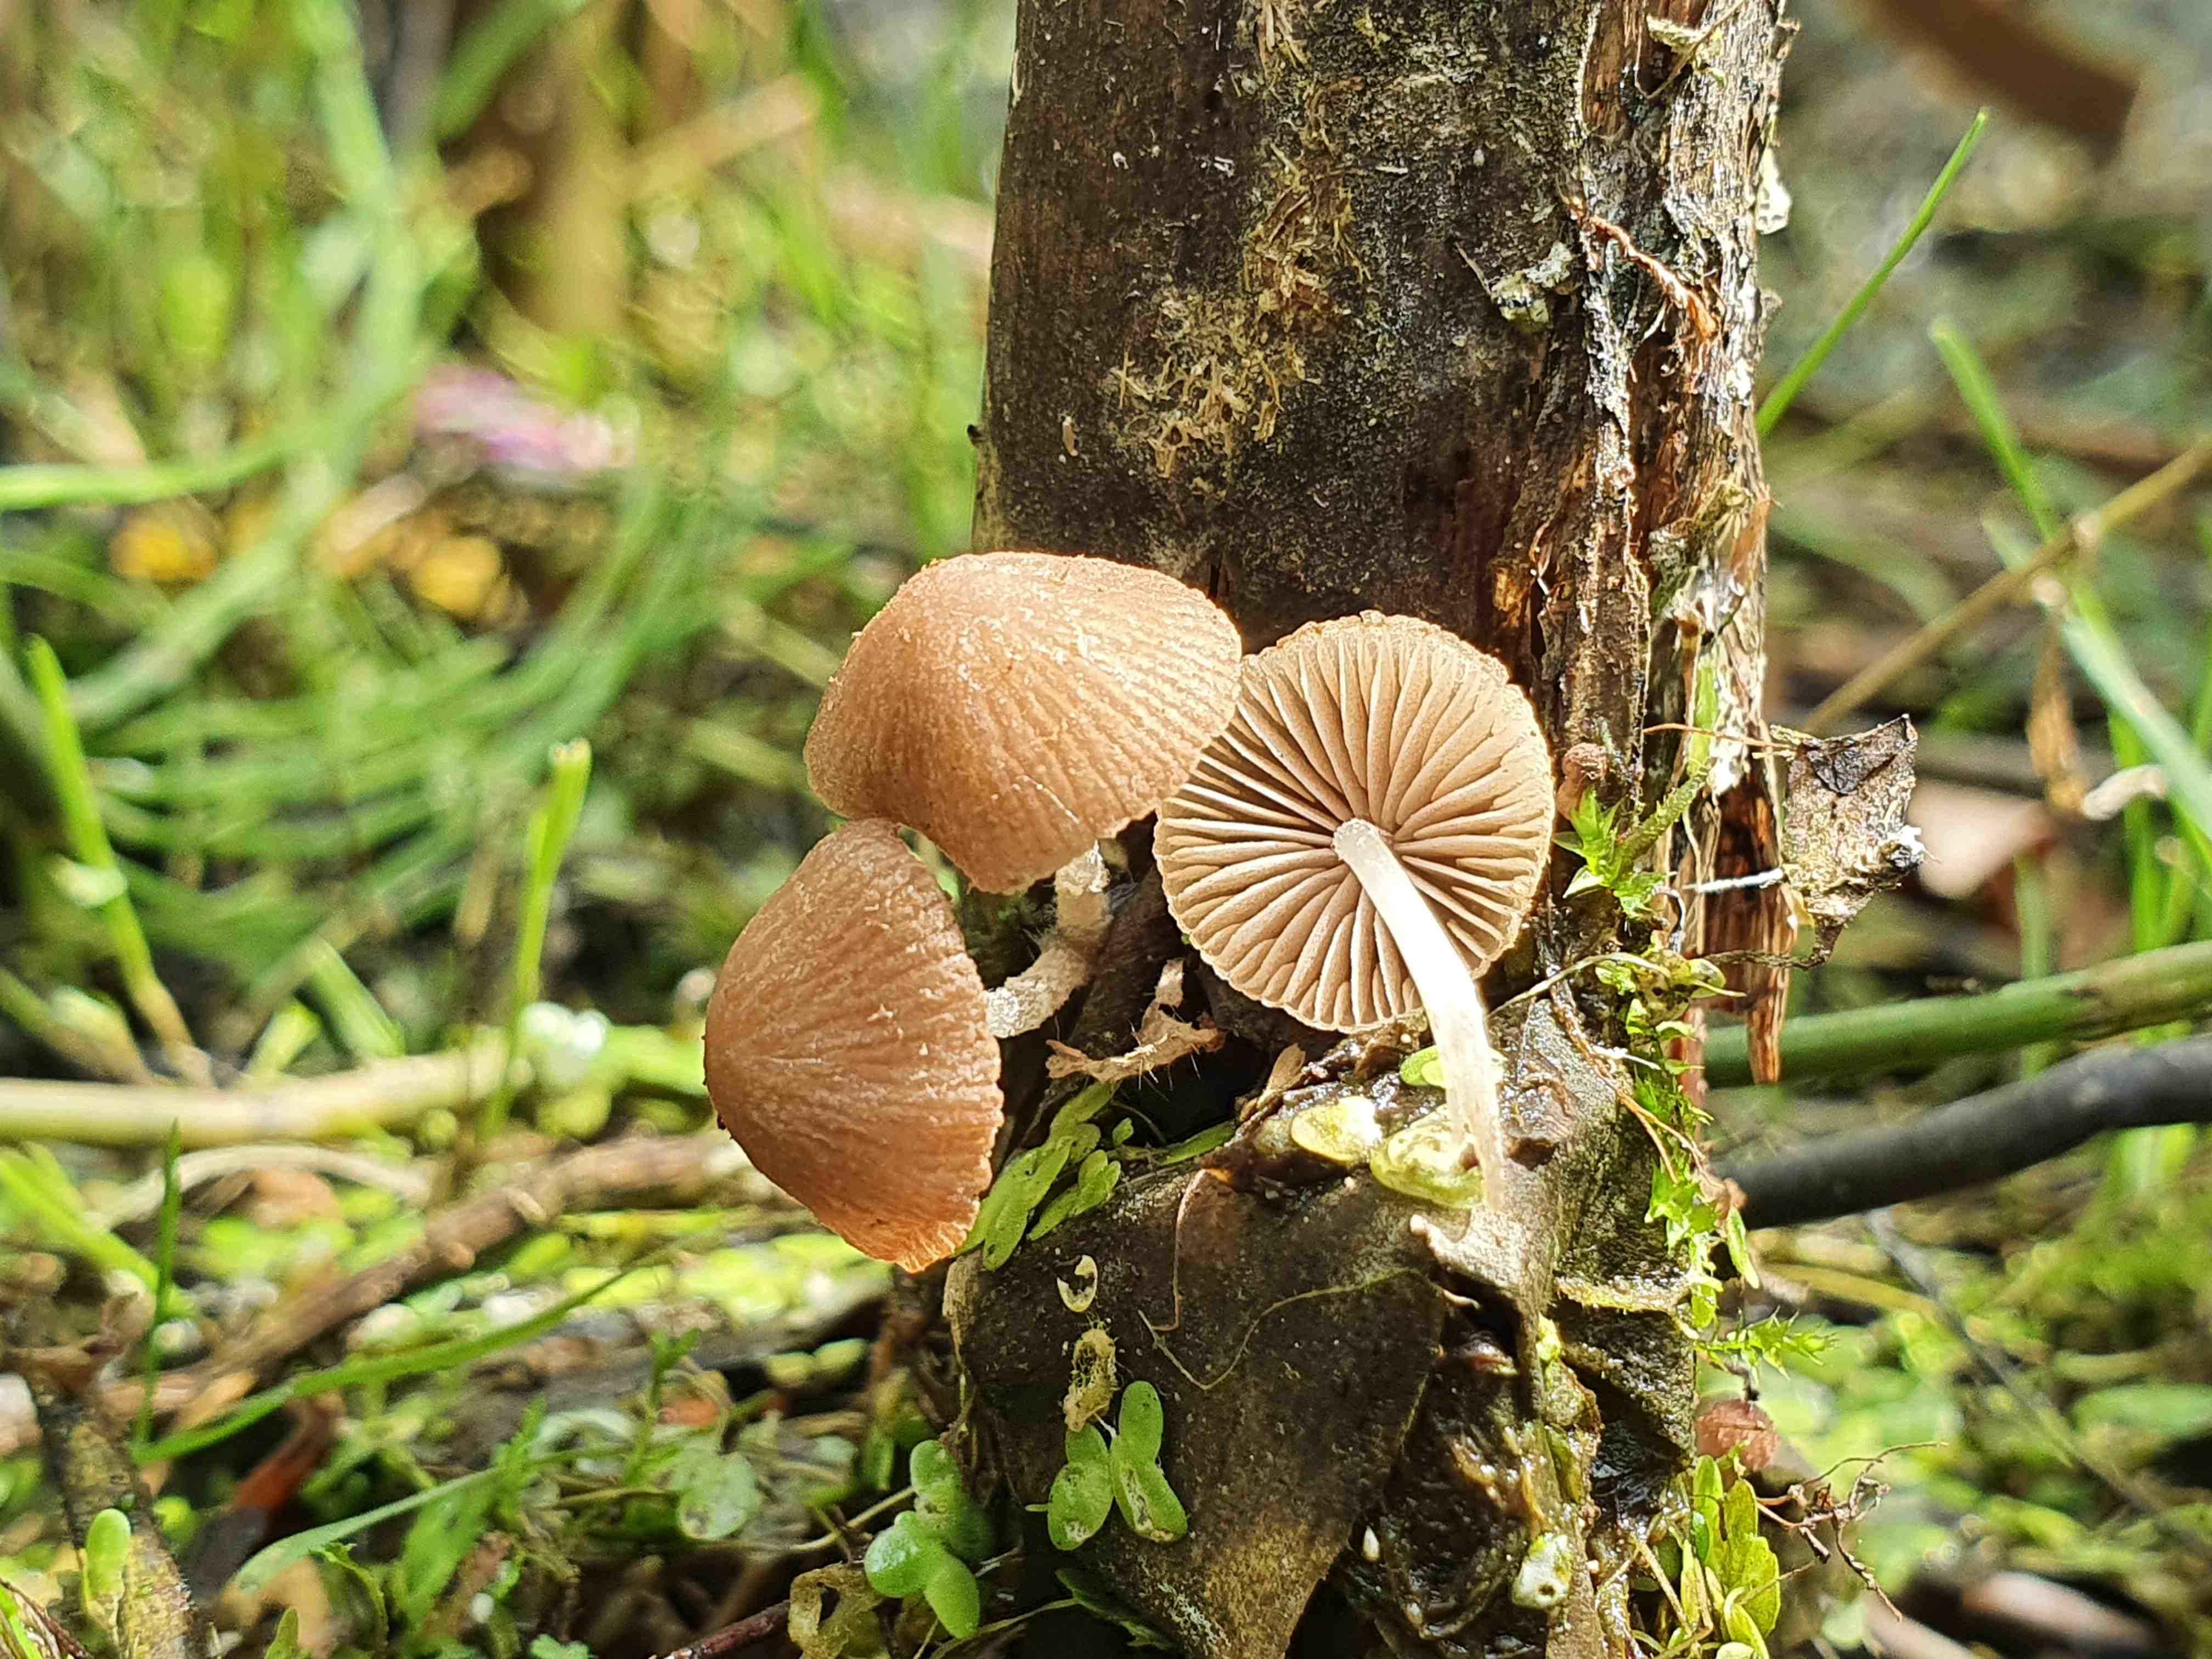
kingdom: Fungi
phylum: Basidiomycota
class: Agaricomycetes
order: Agaricales
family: Psathyrellaceae
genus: Candolleomyces
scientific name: Candolleomyces typhae
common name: dunhammer-mørkhat
